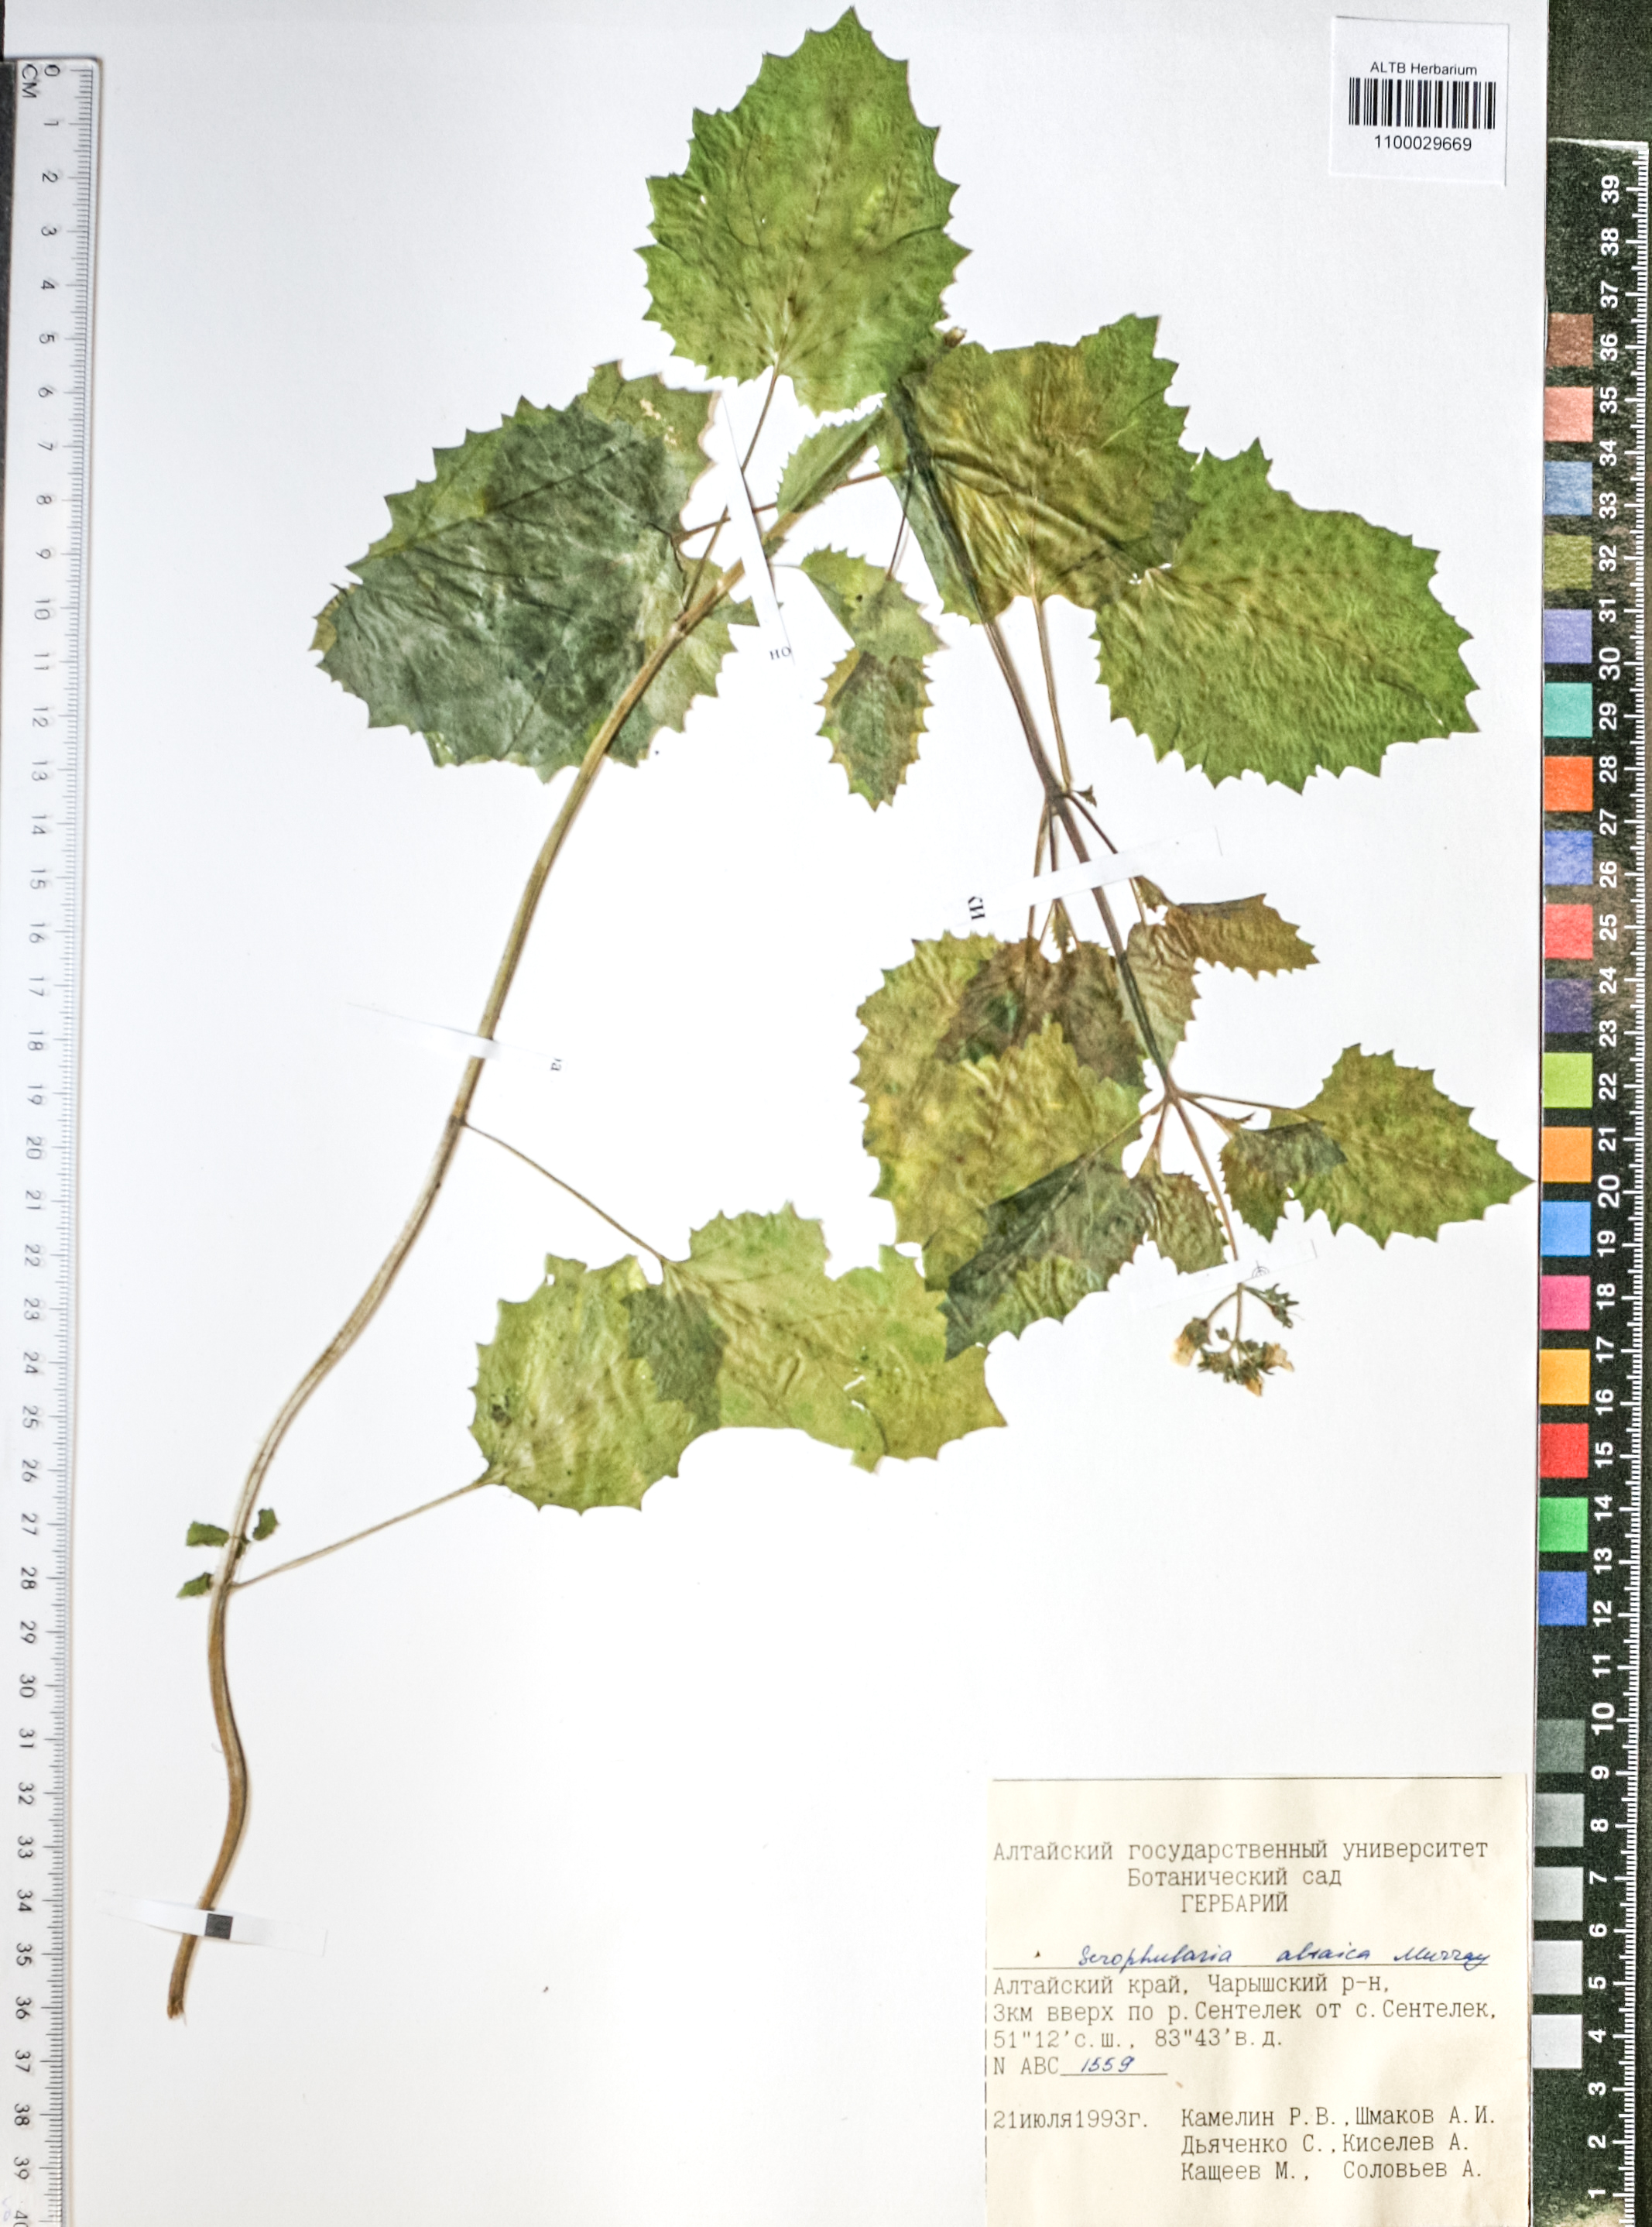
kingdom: Plantae
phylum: Tracheophyta
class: Magnoliopsida
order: Lamiales
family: Plantaginaceae
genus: Veronica
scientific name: Veronica beccabunga
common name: Brooklime
